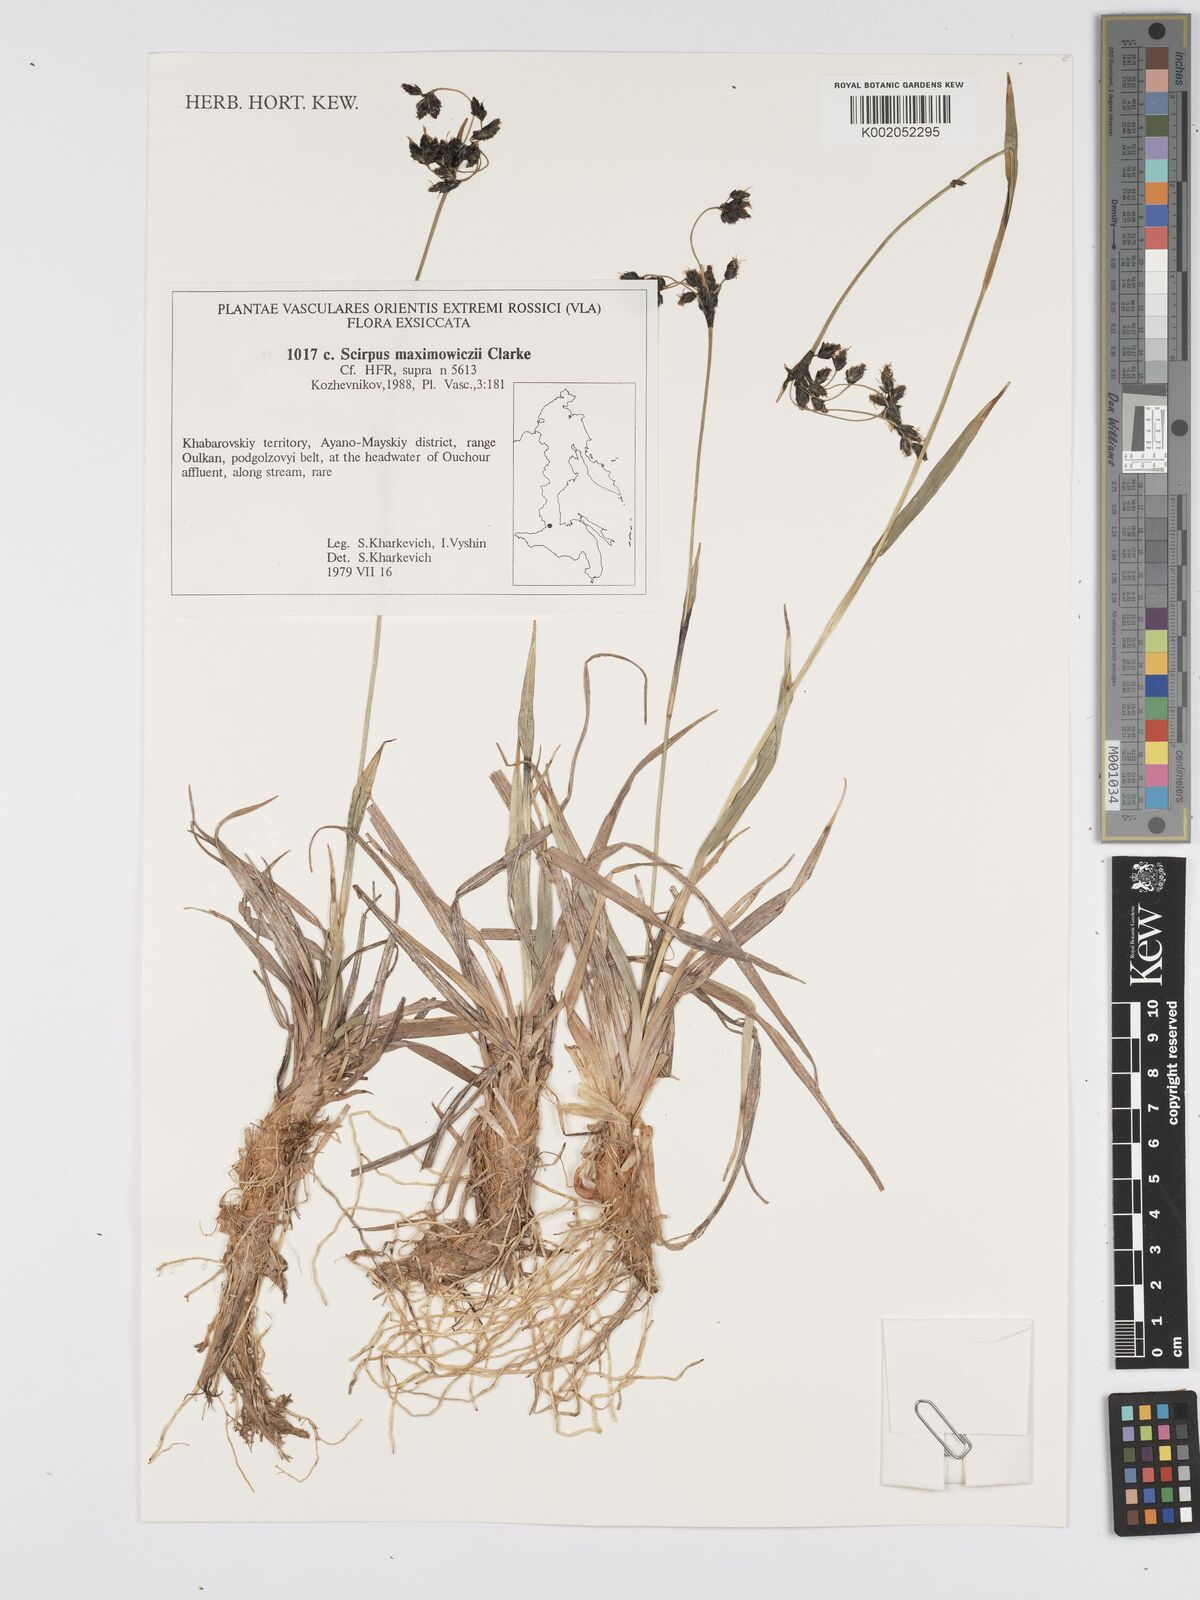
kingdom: Plantae
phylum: Tracheophyta
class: Liliopsida
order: Poales
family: Cyperaceae
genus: Scirpus
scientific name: Scirpus maximowiczii
